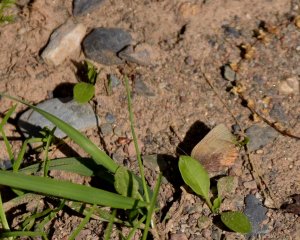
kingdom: Animalia
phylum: Arthropoda
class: Insecta
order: Lepidoptera
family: Lycaenidae
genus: Incisalia
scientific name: Incisalia irioides
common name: Brown Elfin
